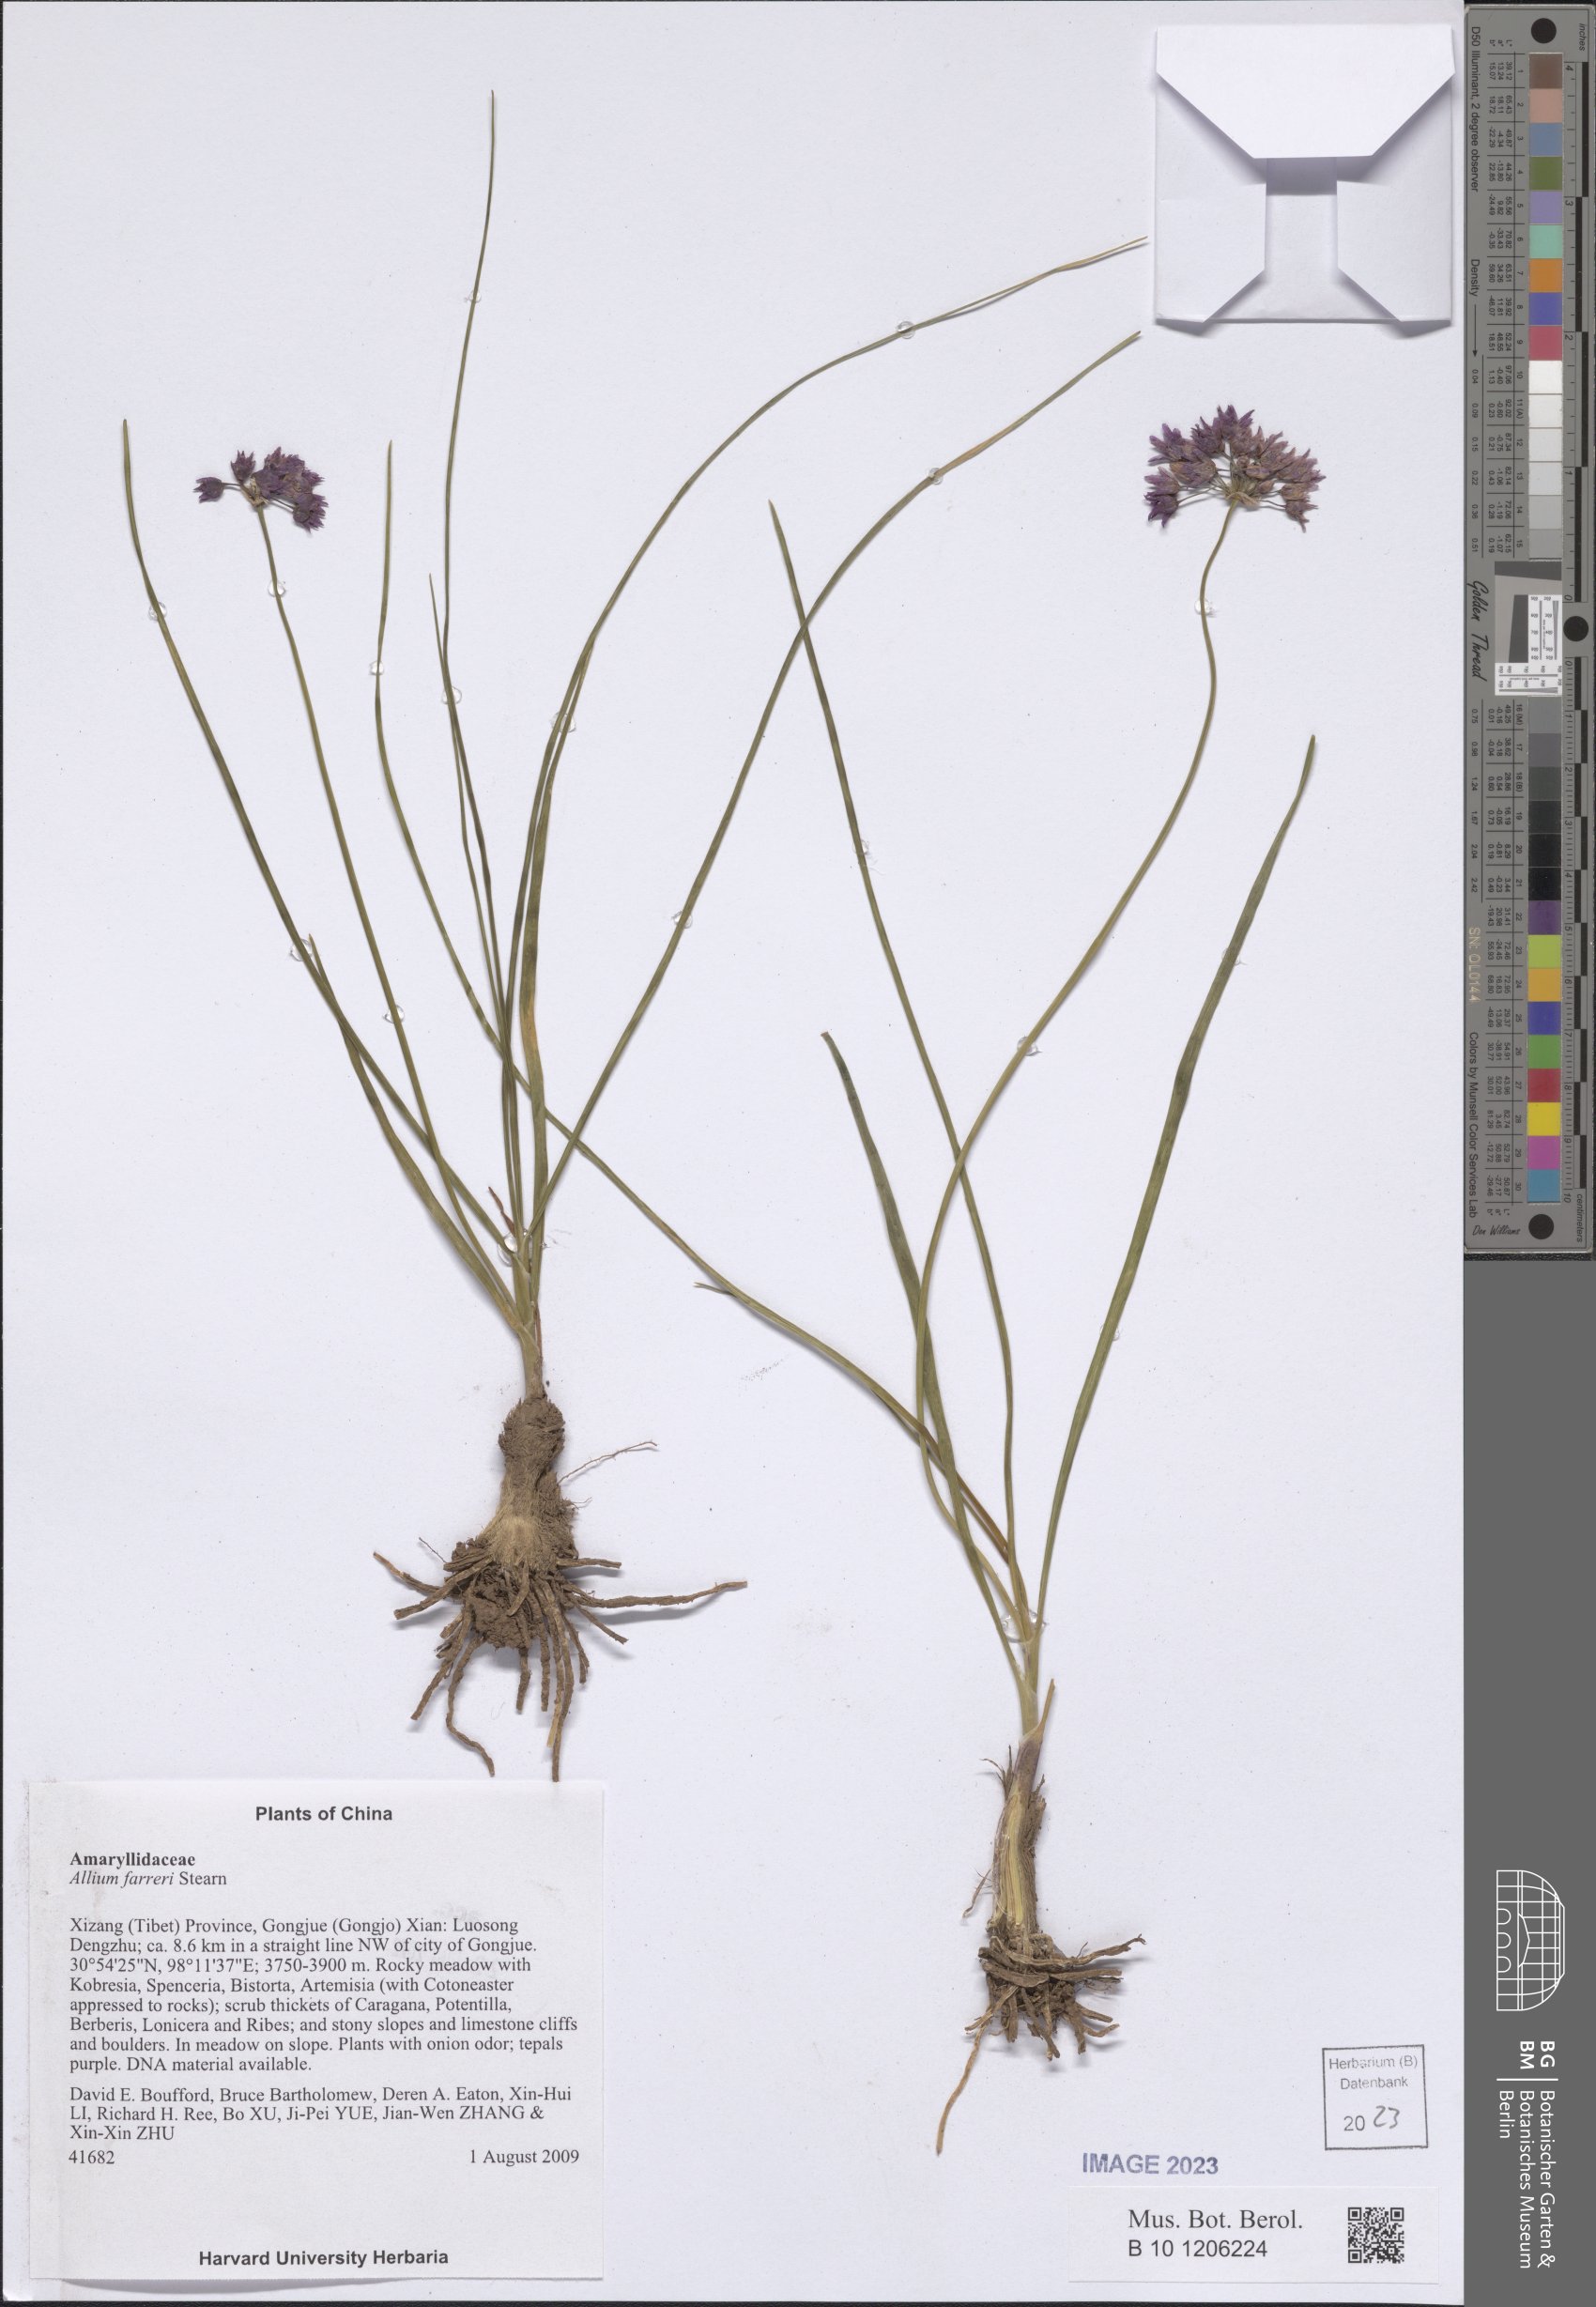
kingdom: Plantae
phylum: Tracheophyta
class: Liliopsida
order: Asparagales
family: Amaryllidaceae
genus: Allium
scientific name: Allium farreri
